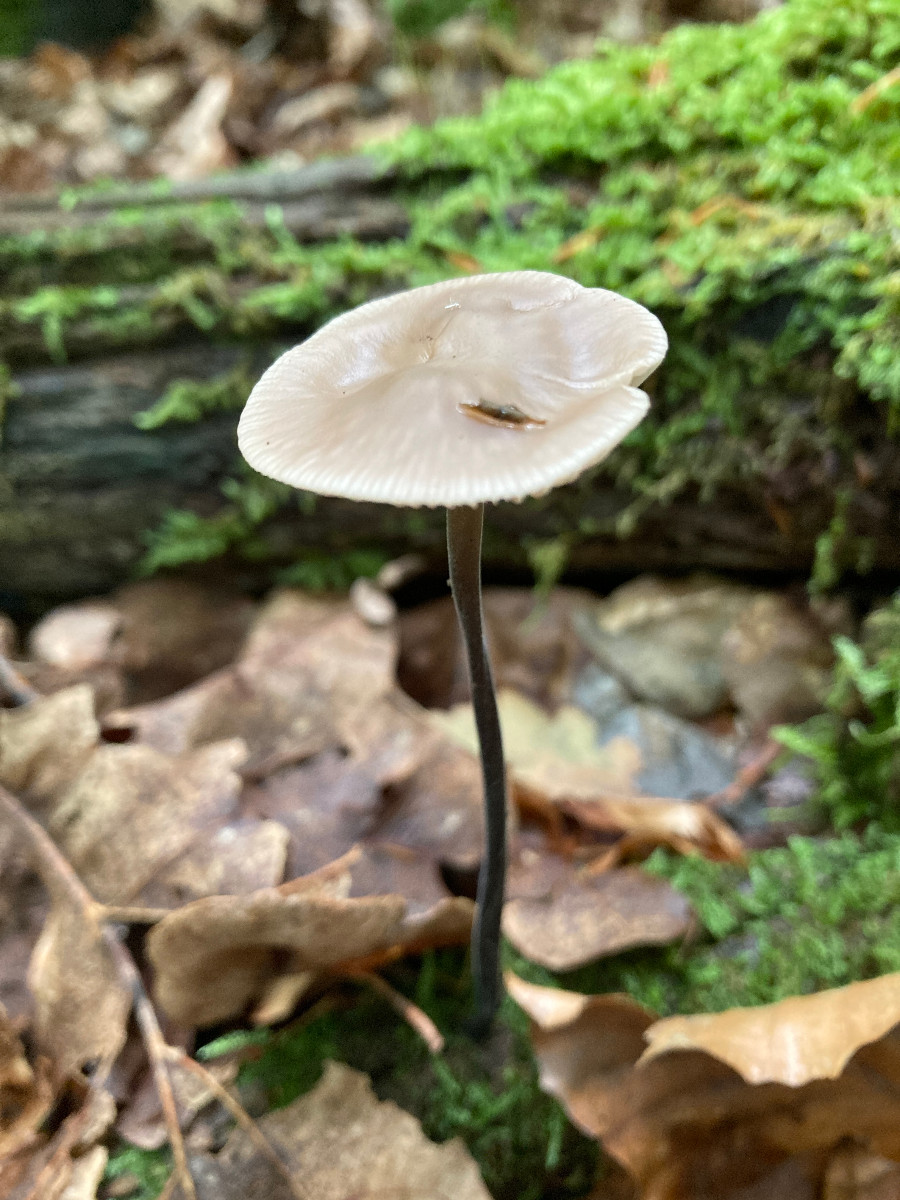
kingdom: Fungi
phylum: Basidiomycota
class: Agaricomycetes
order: Agaricales
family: Omphalotaceae
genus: Mycetinis
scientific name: Mycetinis alliaceus
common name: stor løghat
